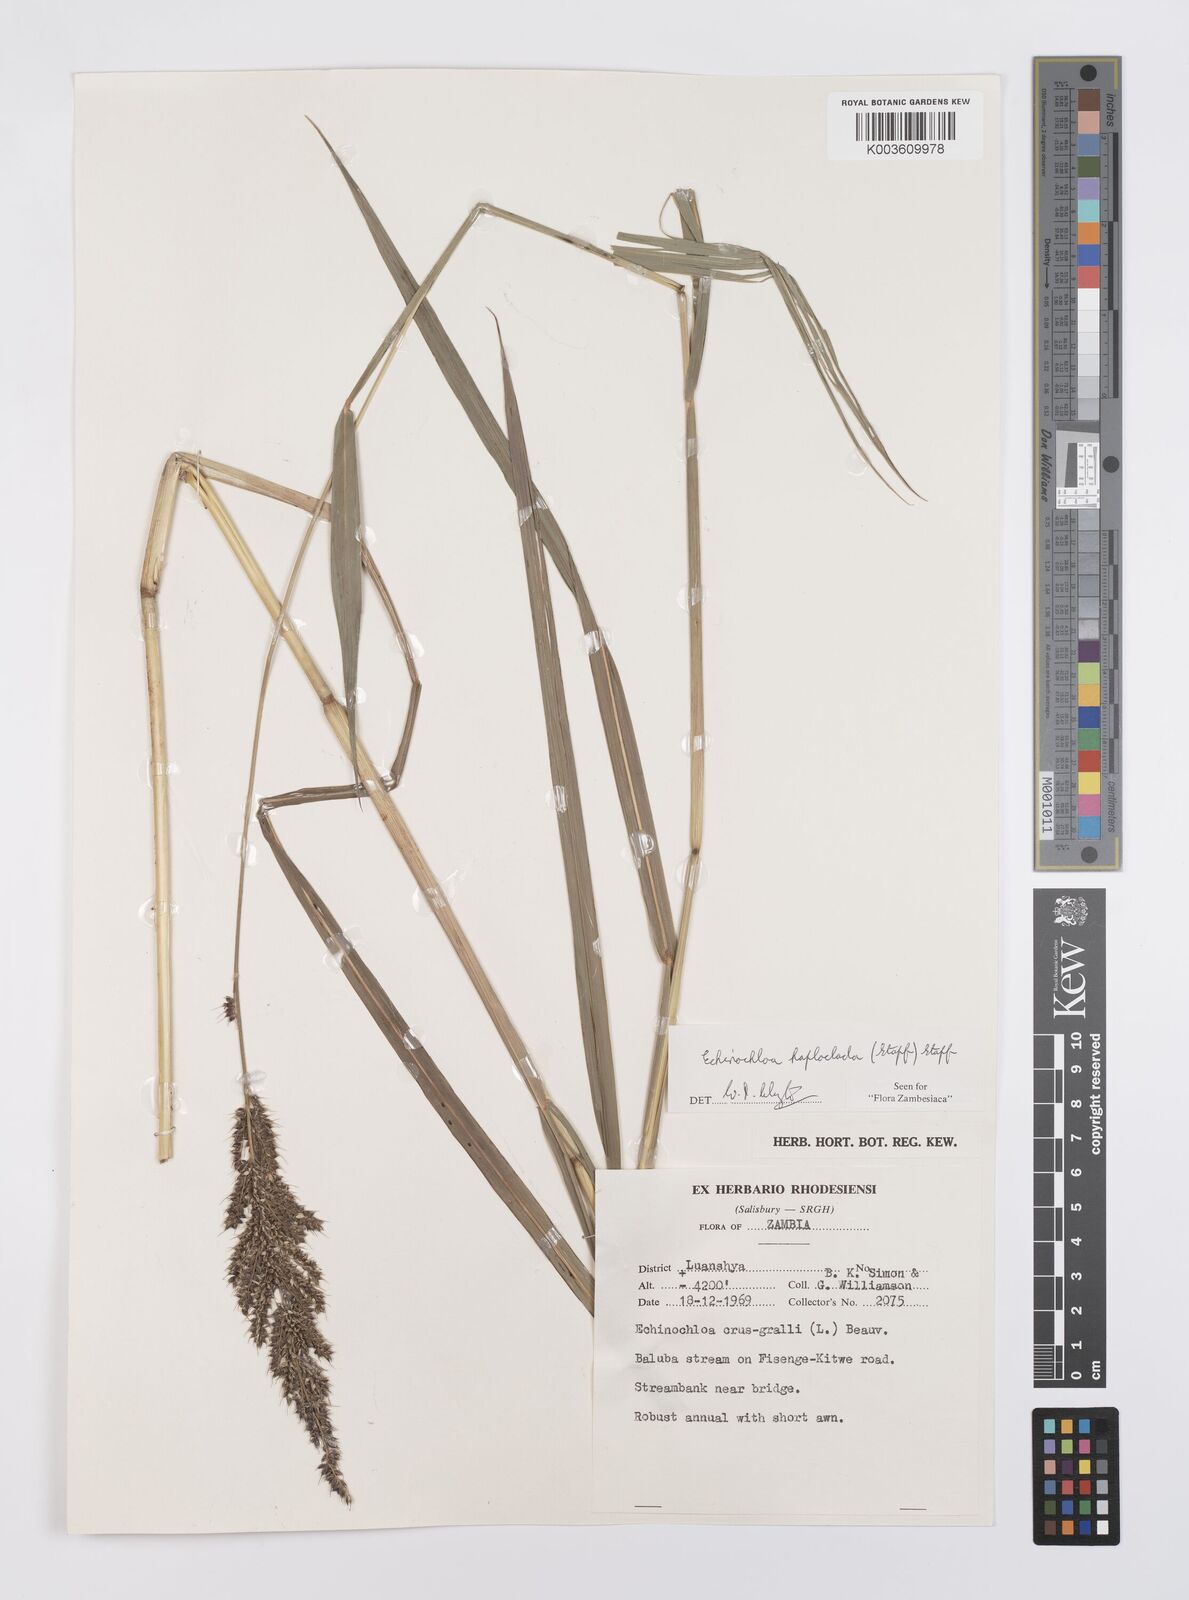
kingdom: Plantae
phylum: Tracheophyta
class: Liliopsida
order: Poales
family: Poaceae
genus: Echinochloa
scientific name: Echinochloa haploclada
